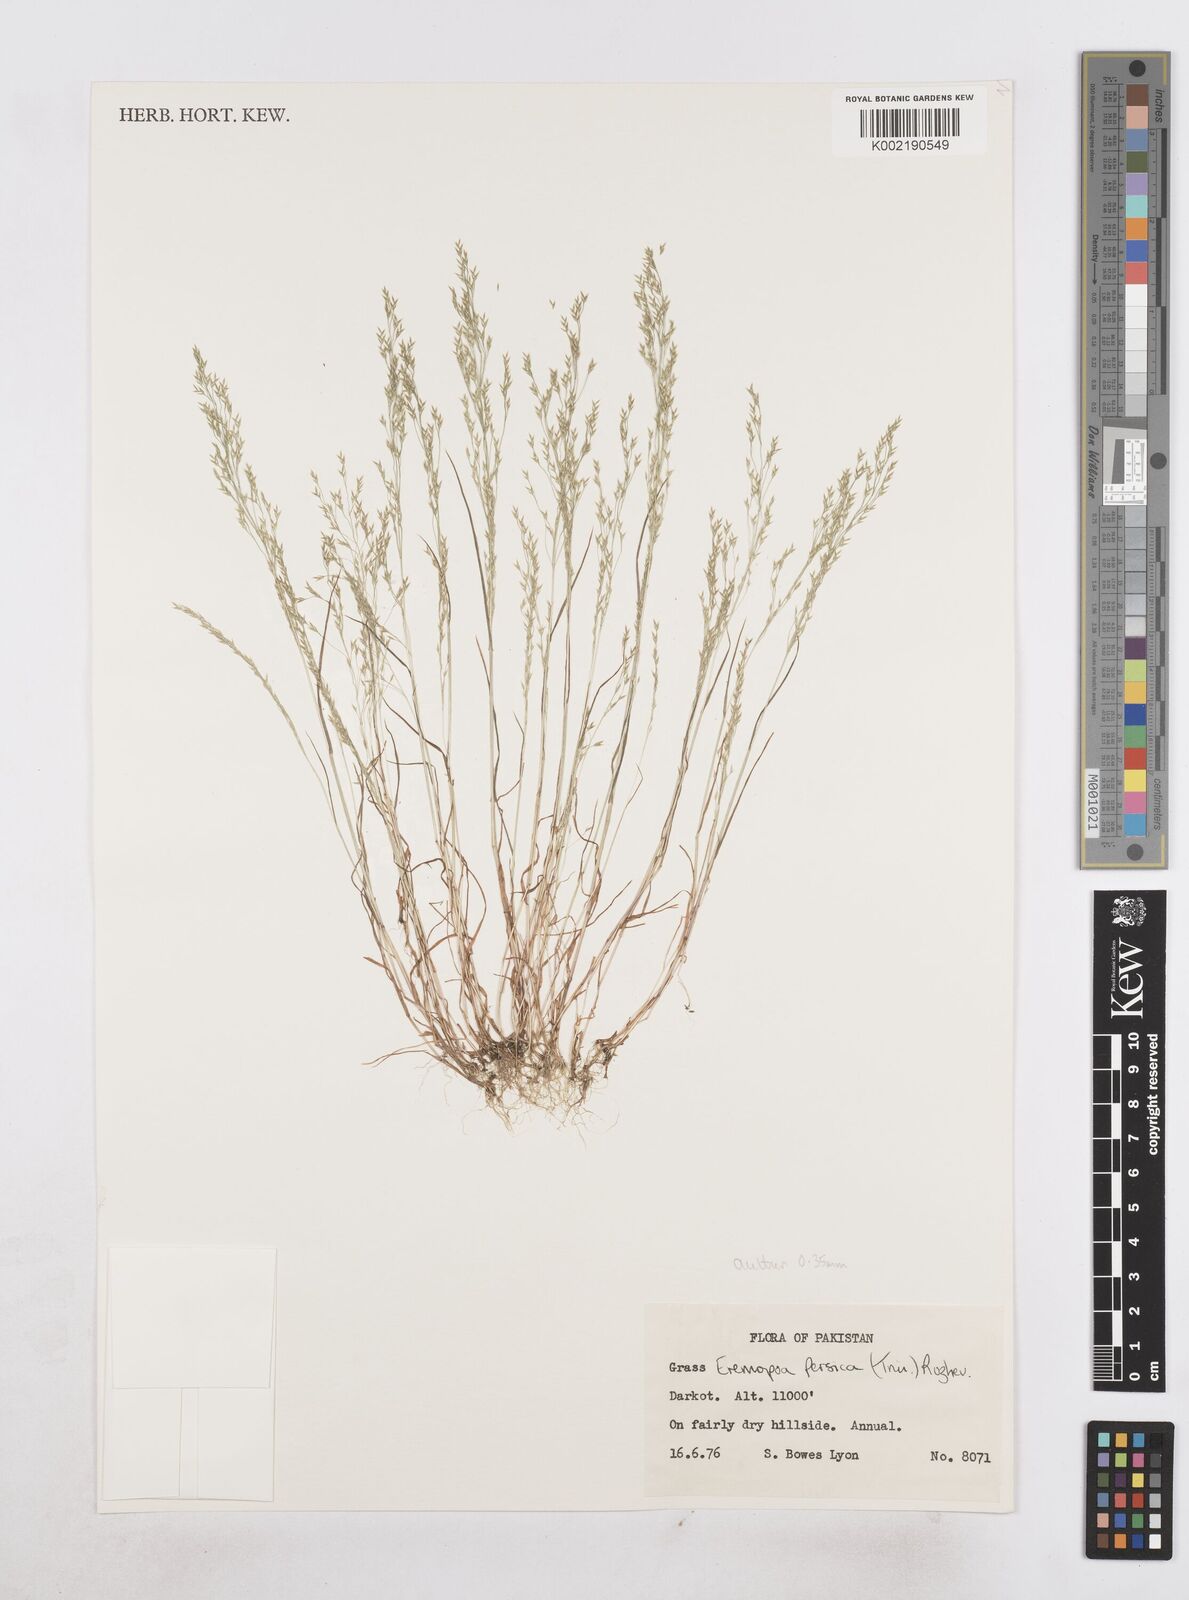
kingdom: Plantae
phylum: Tracheophyta
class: Liliopsida
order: Poales
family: Poaceae
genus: Poa
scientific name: Poa diaphora
